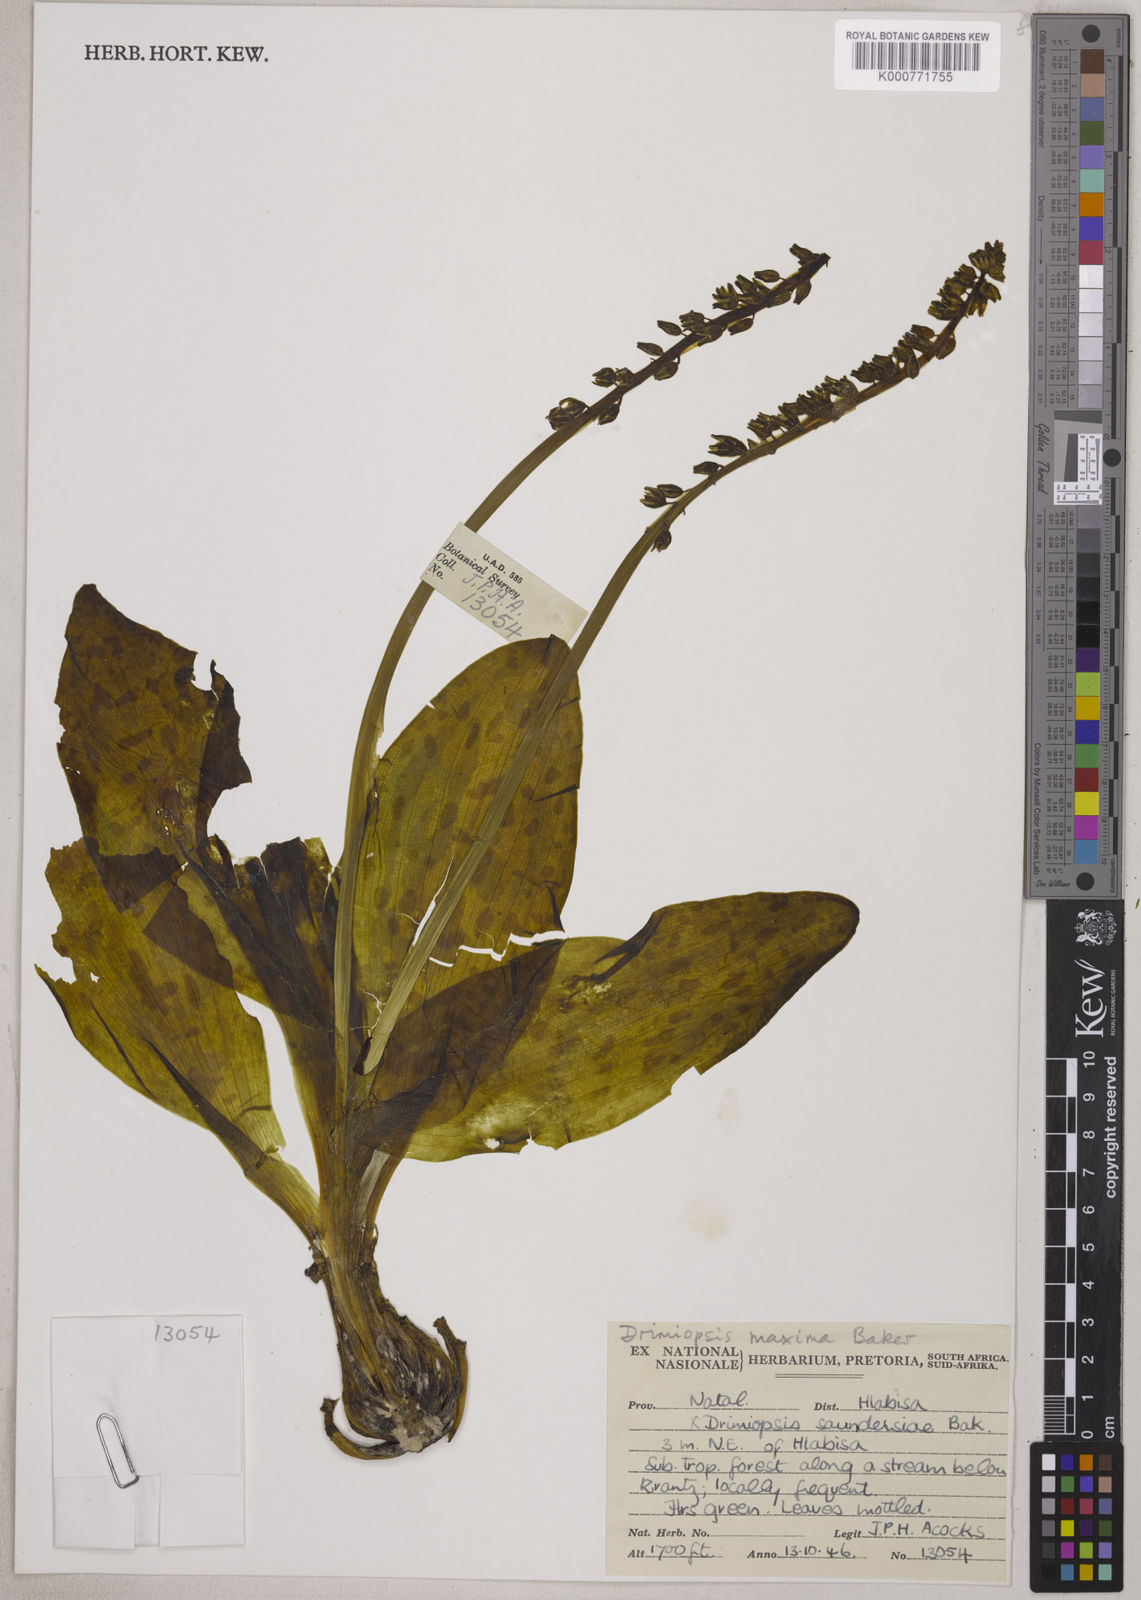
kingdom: Plantae
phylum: Tracheophyta
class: Liliopsida
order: Asparagales
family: Asparagaceae
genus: Resnova
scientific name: Resnova humifusa
